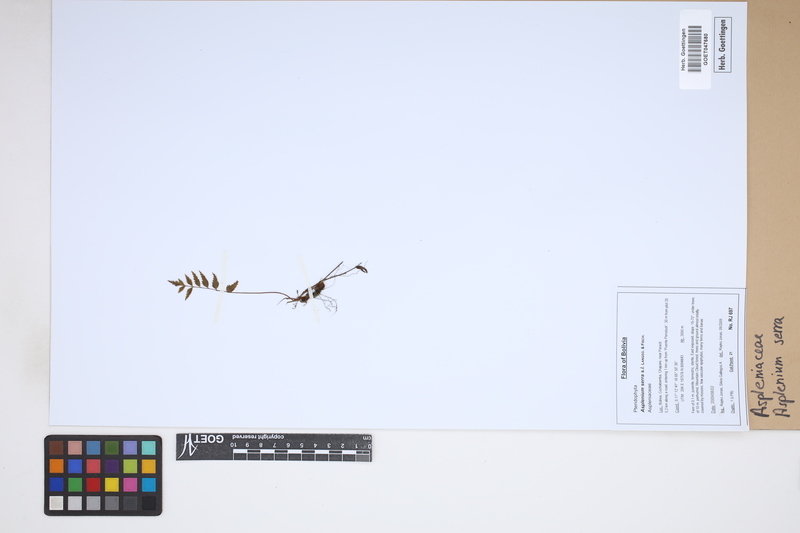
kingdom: Plantae
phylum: Tracheophyta
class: Polypodiopsida
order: Polypodiales
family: Aspleniaceae
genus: Asplenium
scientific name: Asplenium serra
